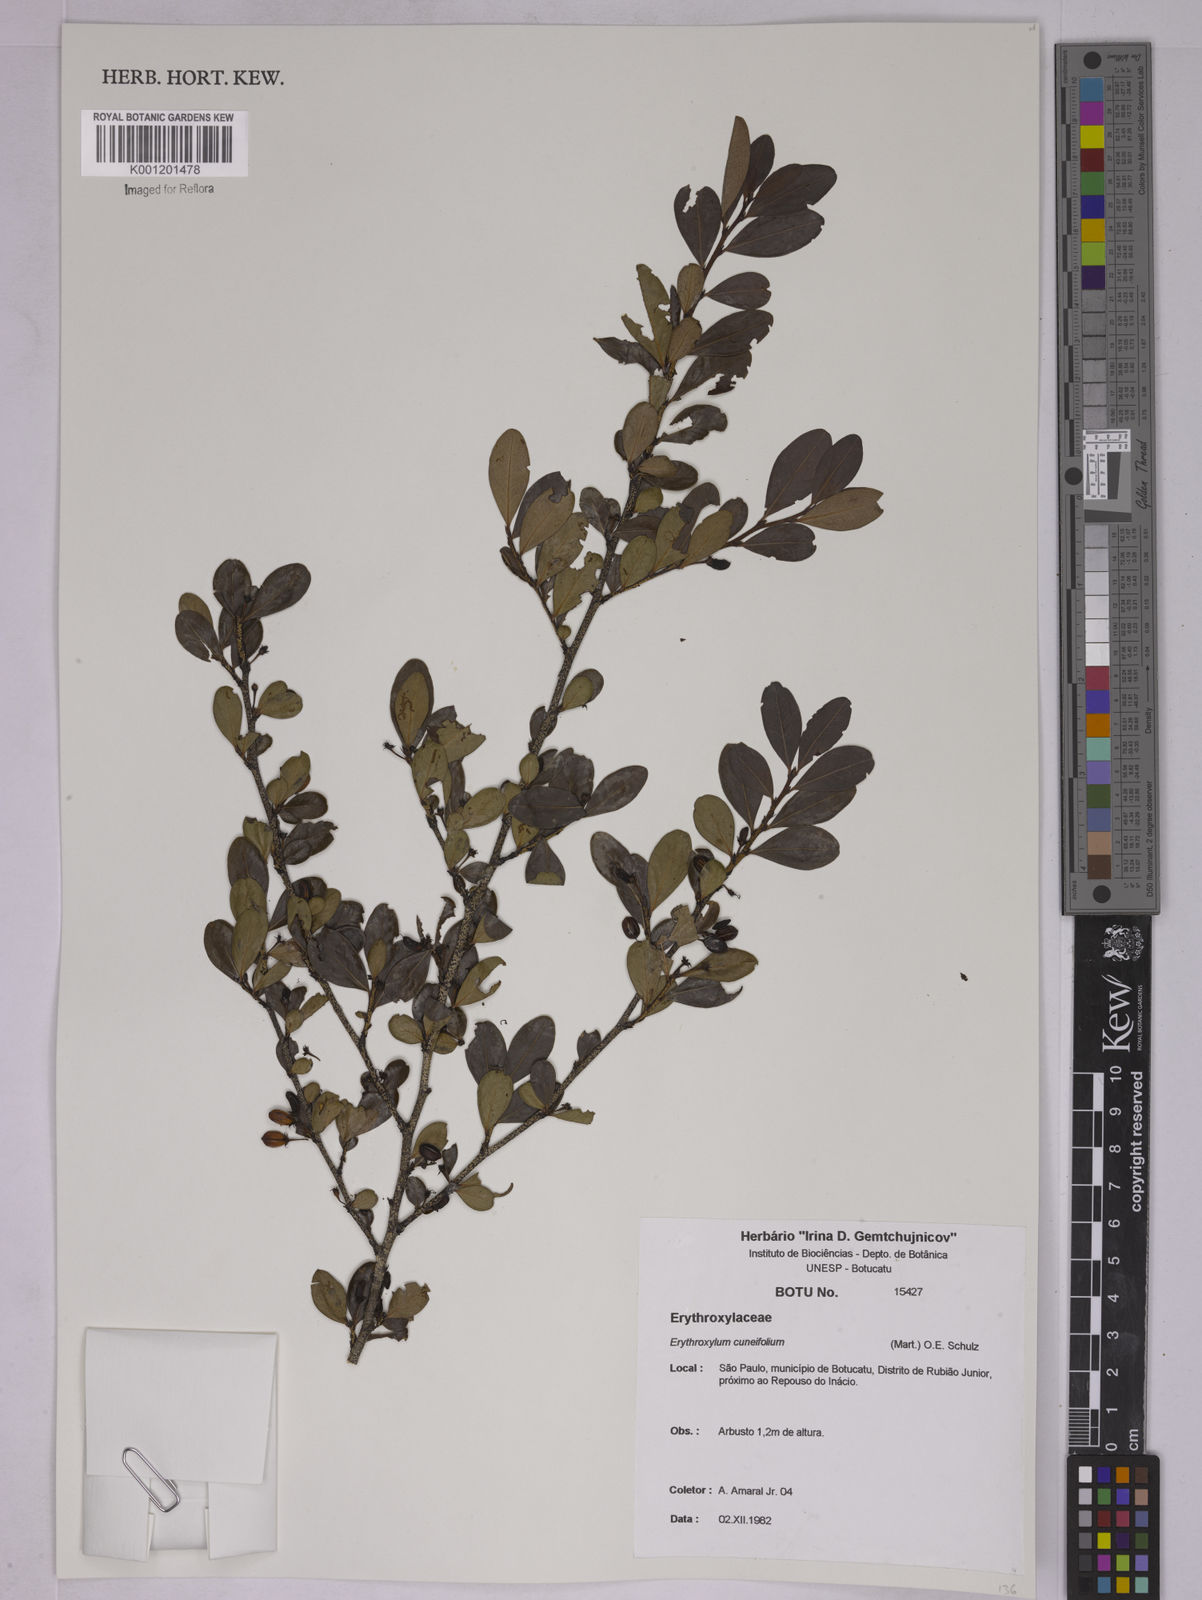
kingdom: Plantae
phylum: Tracheophyta
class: Magnoliopsida
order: Malpighiales
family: Erythroxylaceae
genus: Erythroxylum
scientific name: Erythroxylum cuneifolium
